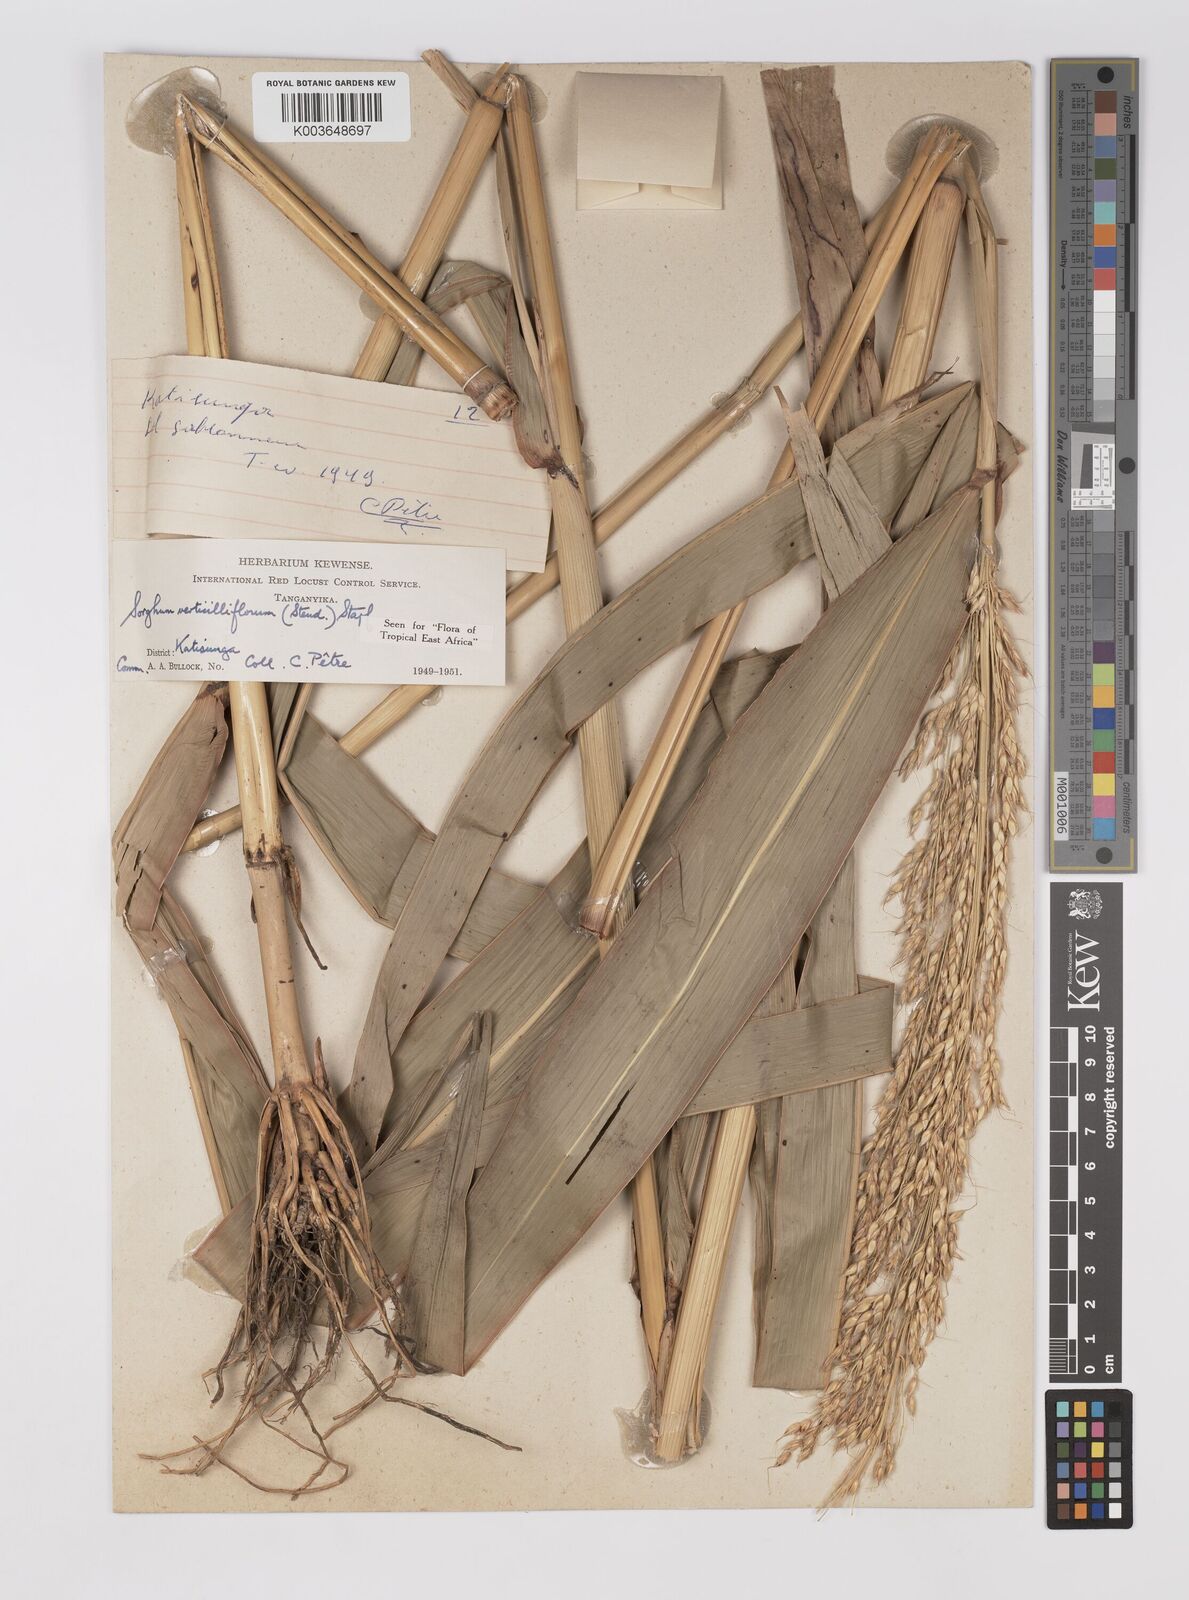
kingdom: Plantae
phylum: Tracheophyta
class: Liliopsida
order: Poales
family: Poaceae
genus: Sorghum
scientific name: Sorghum arundinaceum
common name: Sorghum
